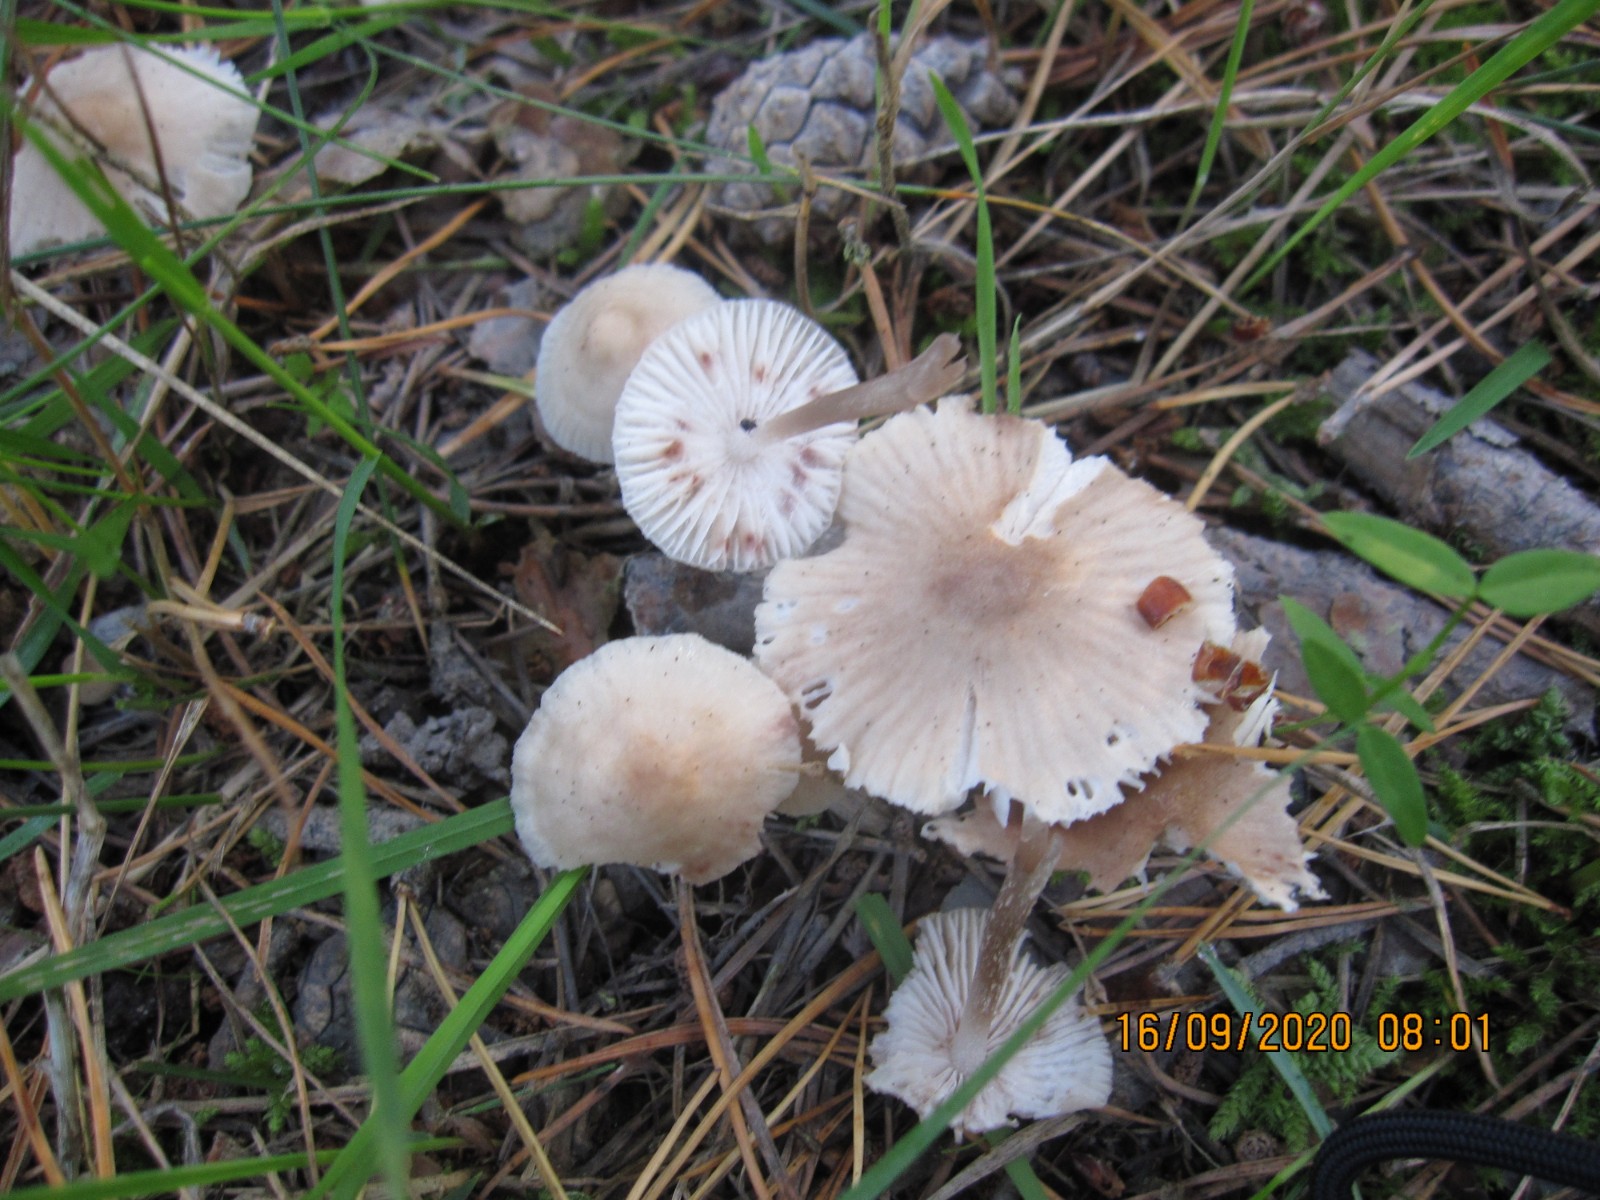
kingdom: Fungi
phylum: Basidiomycota
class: Agaricomycetes
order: Agaricales
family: Mycenaceae
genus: Mycena
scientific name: Mycena zephirus
